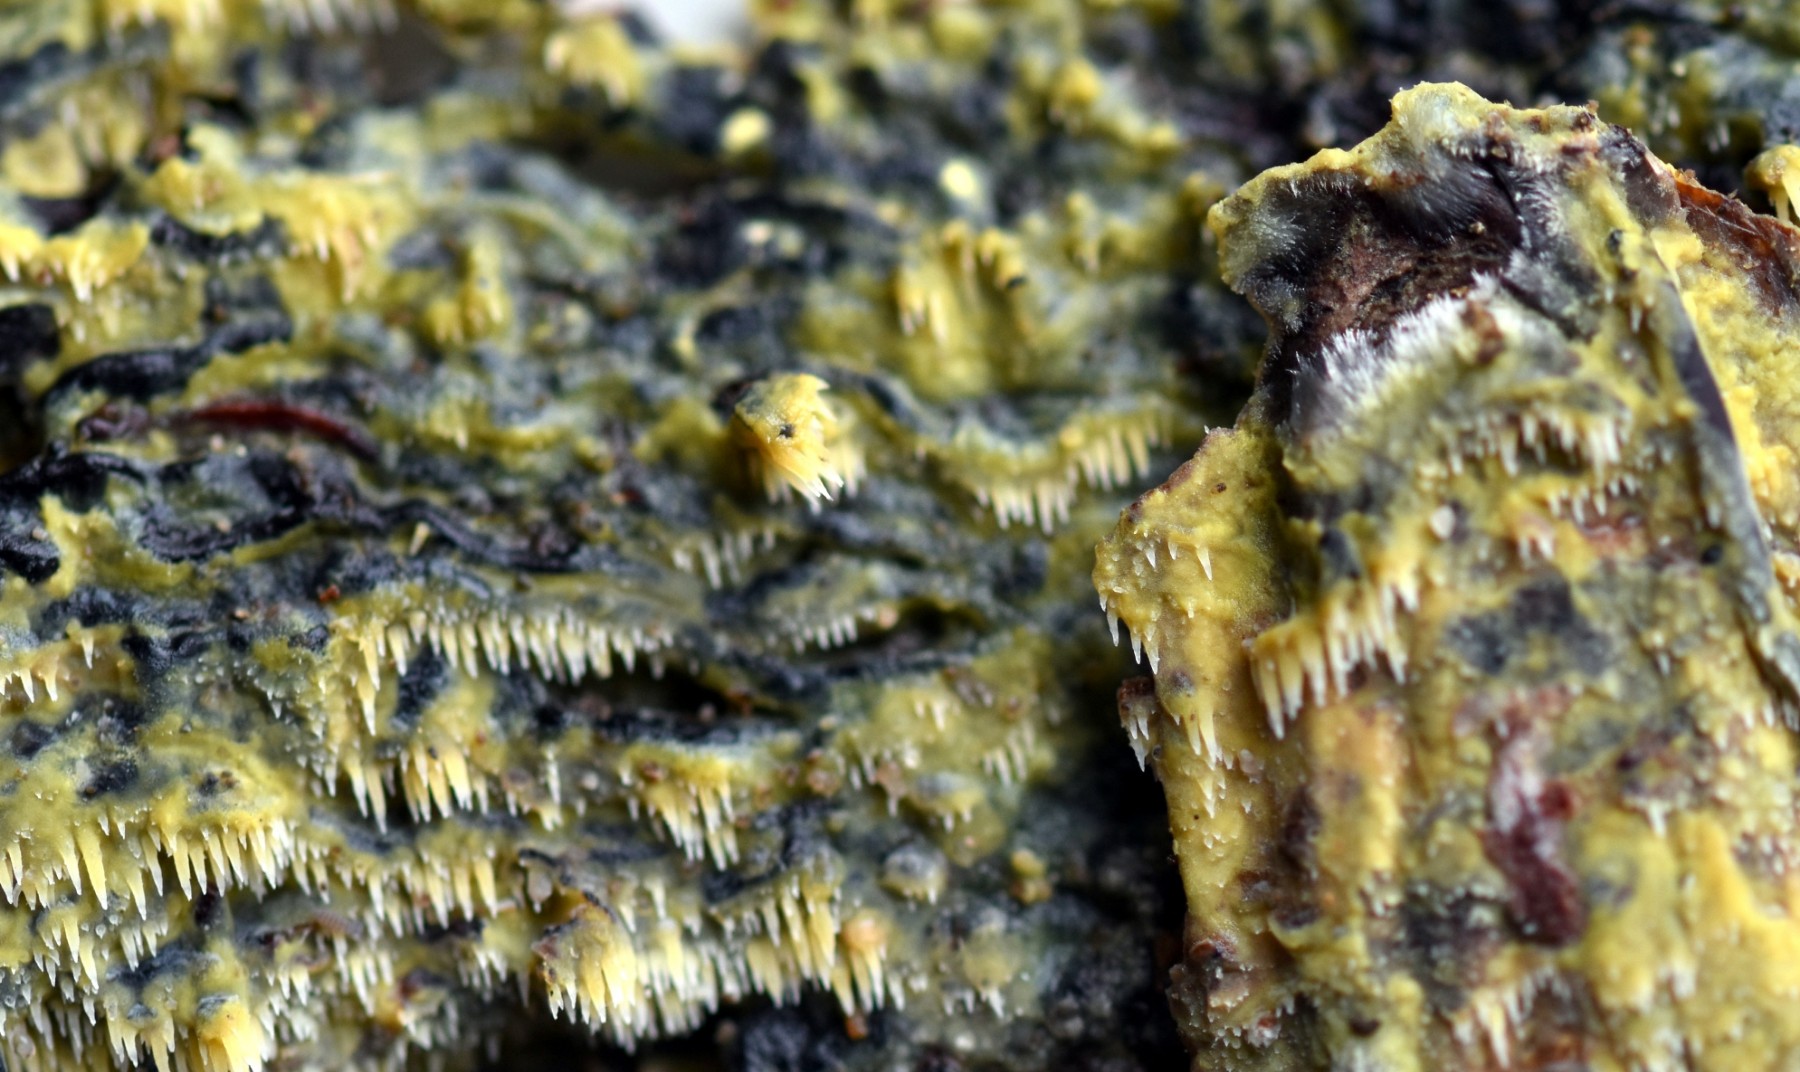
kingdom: Fungi
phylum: Basidiomycota
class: Agaricomycetes
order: Polyporales
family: Meruliaceae
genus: Mycoacia
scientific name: Mycoacia uda
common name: citrongul vokspig
